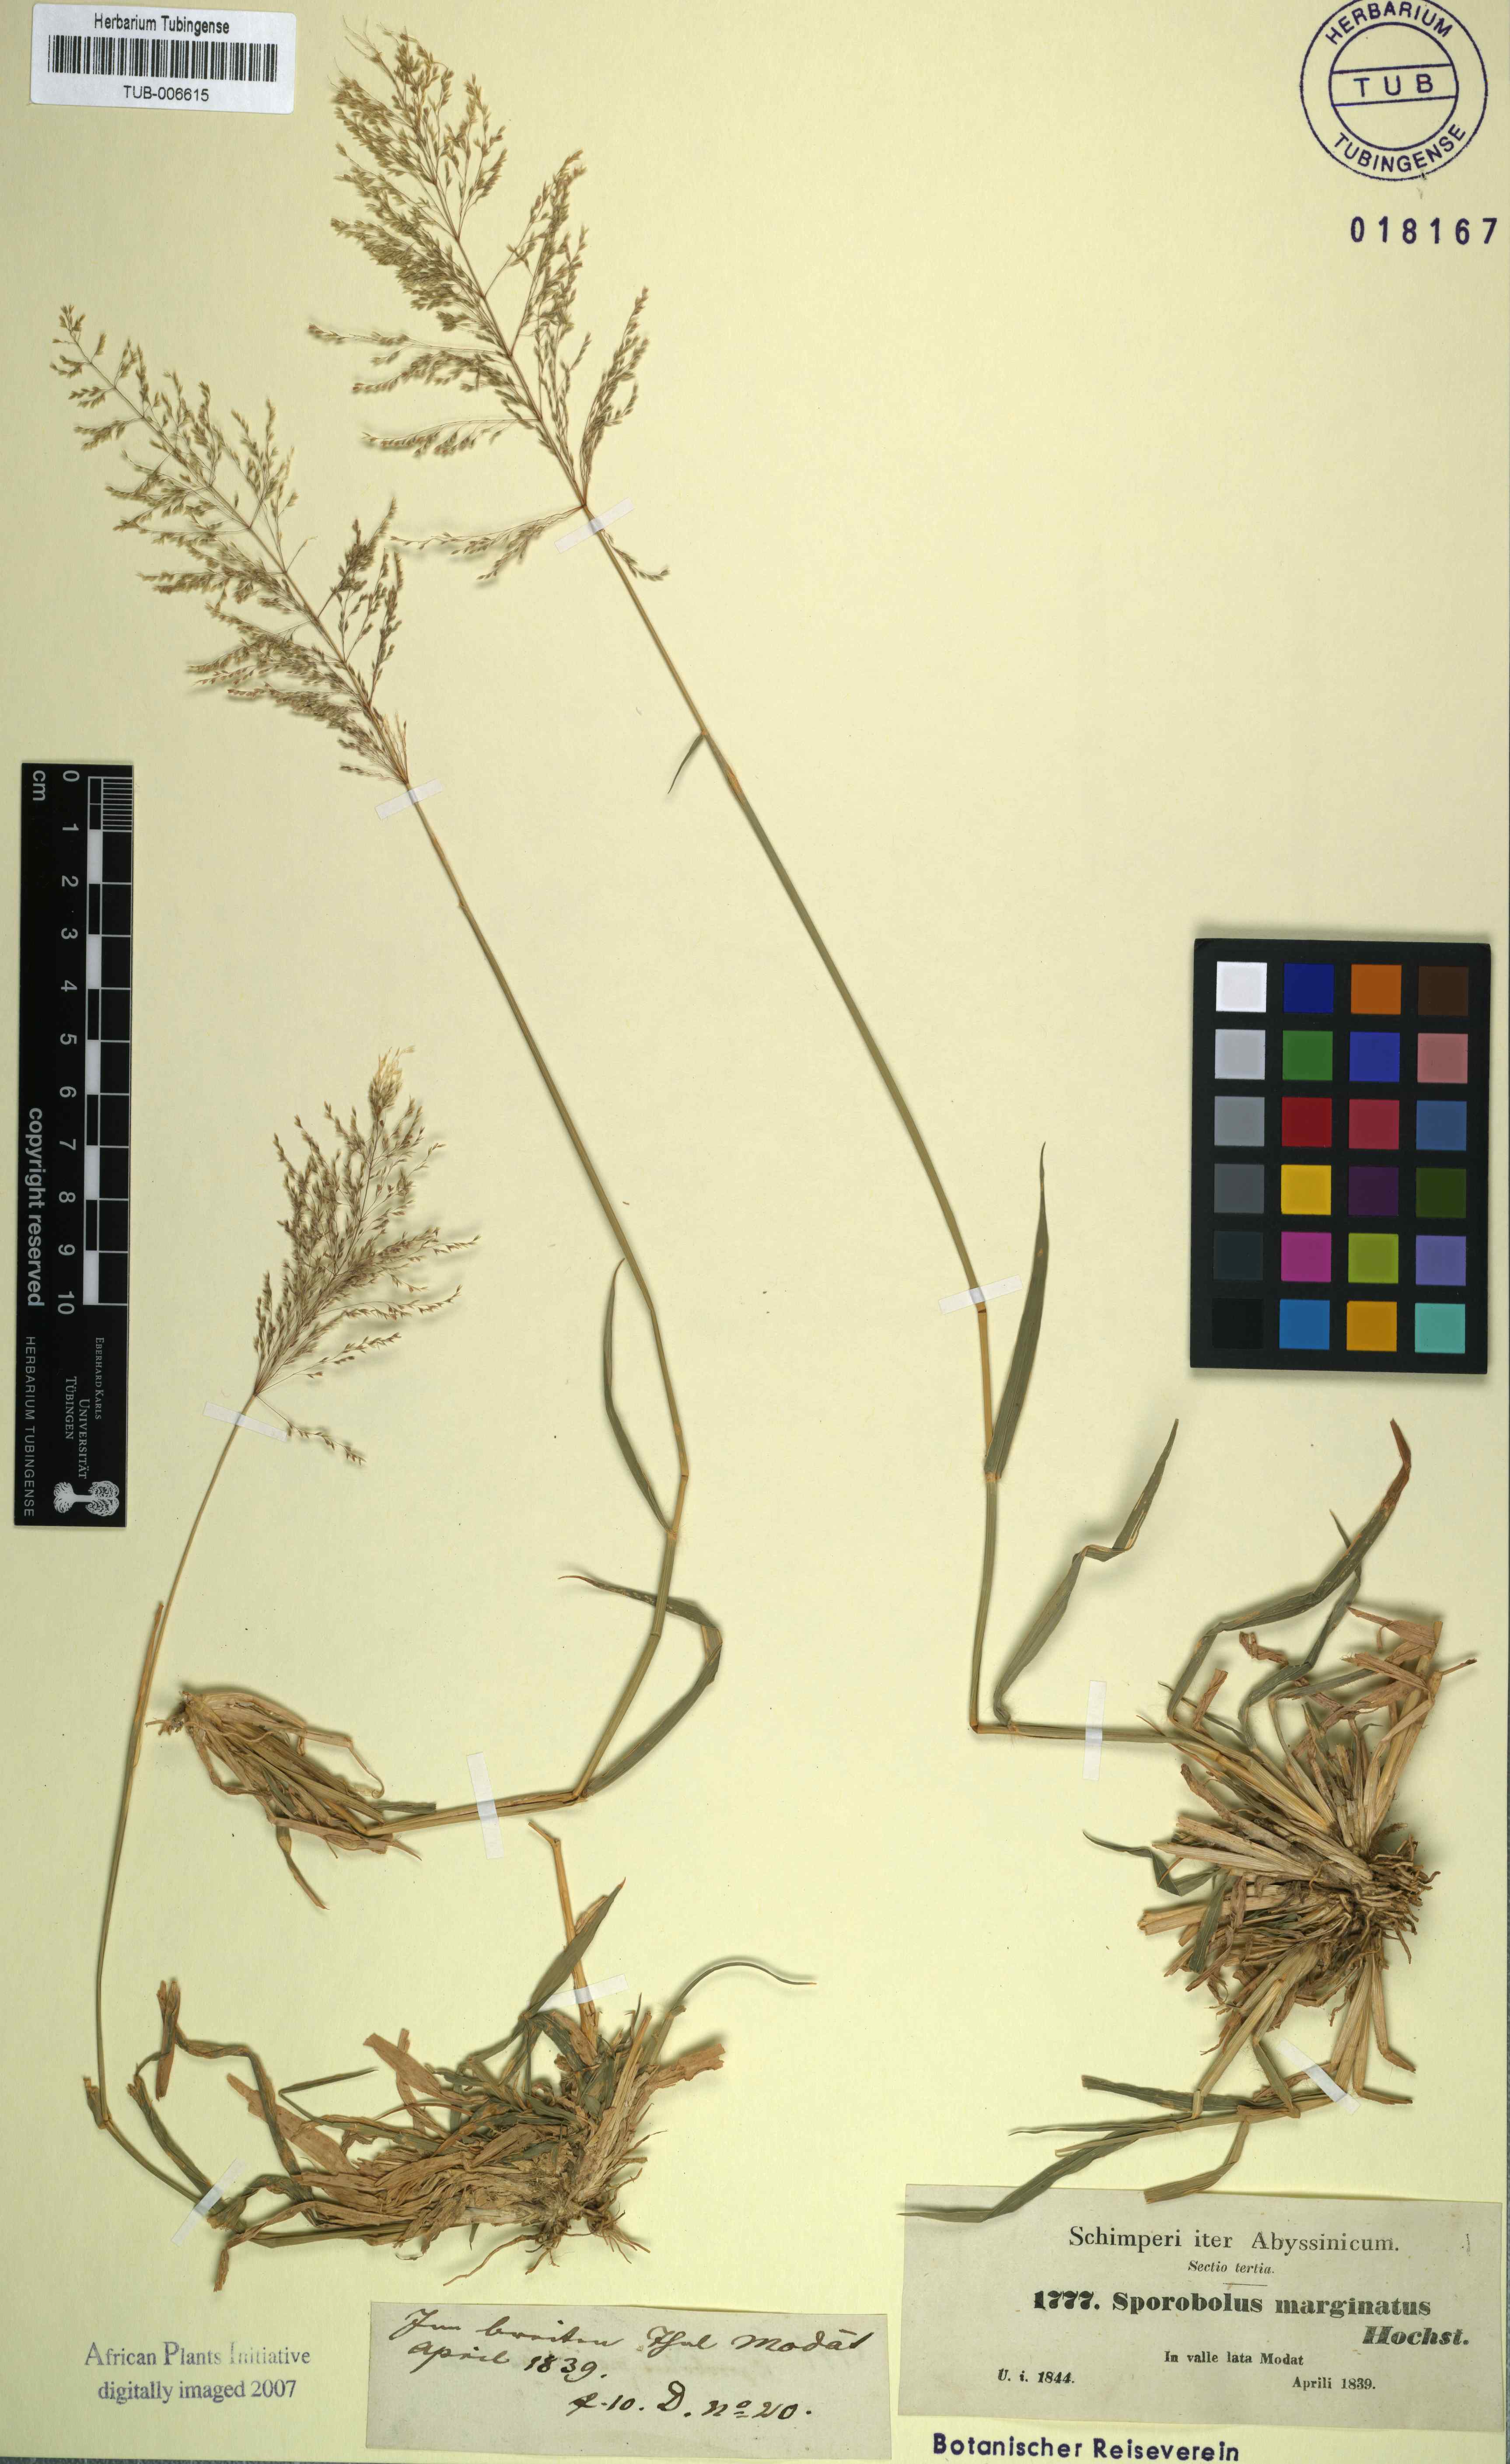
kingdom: Plantae
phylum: Tracheophyta
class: Liliopsida
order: Poales
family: Poaceae
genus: Sporobolus
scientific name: Sporobolus ioclados
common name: Pan dropseed
